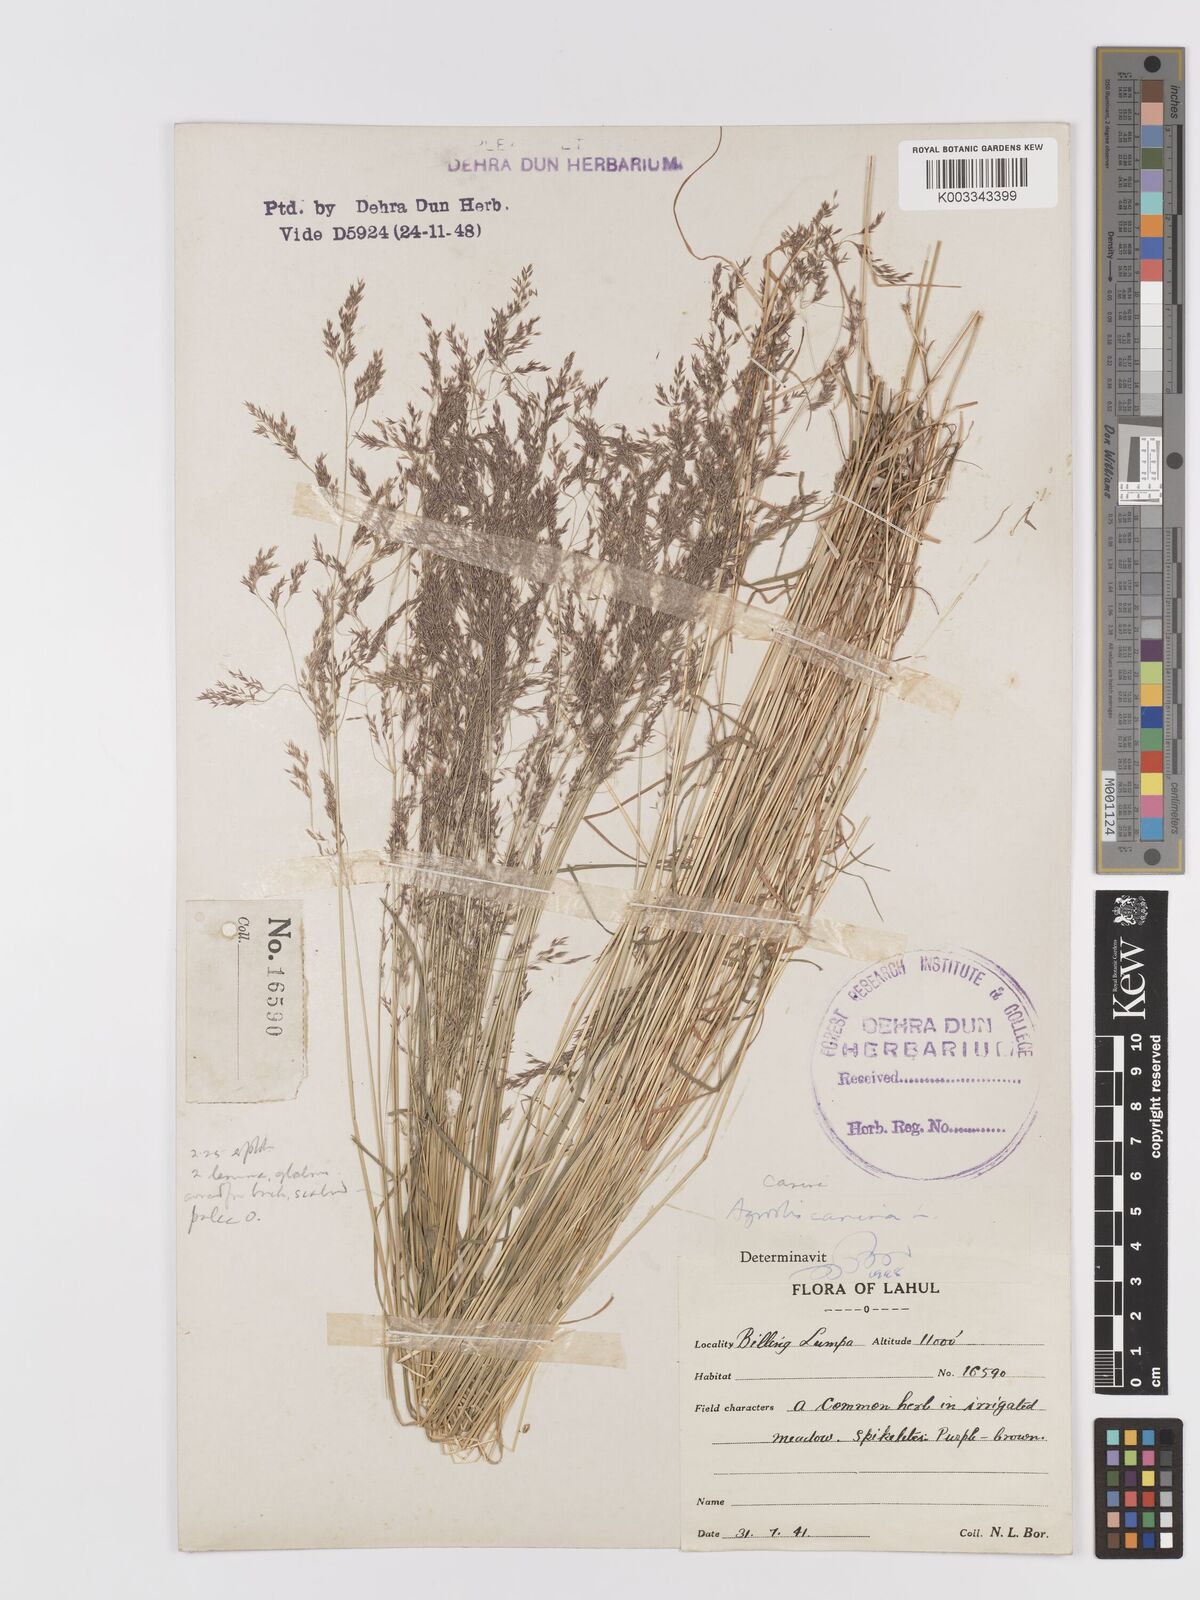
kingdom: Plantae
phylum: Tracheophyta
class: Liliopsida
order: Poales
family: Poaceae
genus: Agrostis
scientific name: Agrostis vinealis
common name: Brown bent
